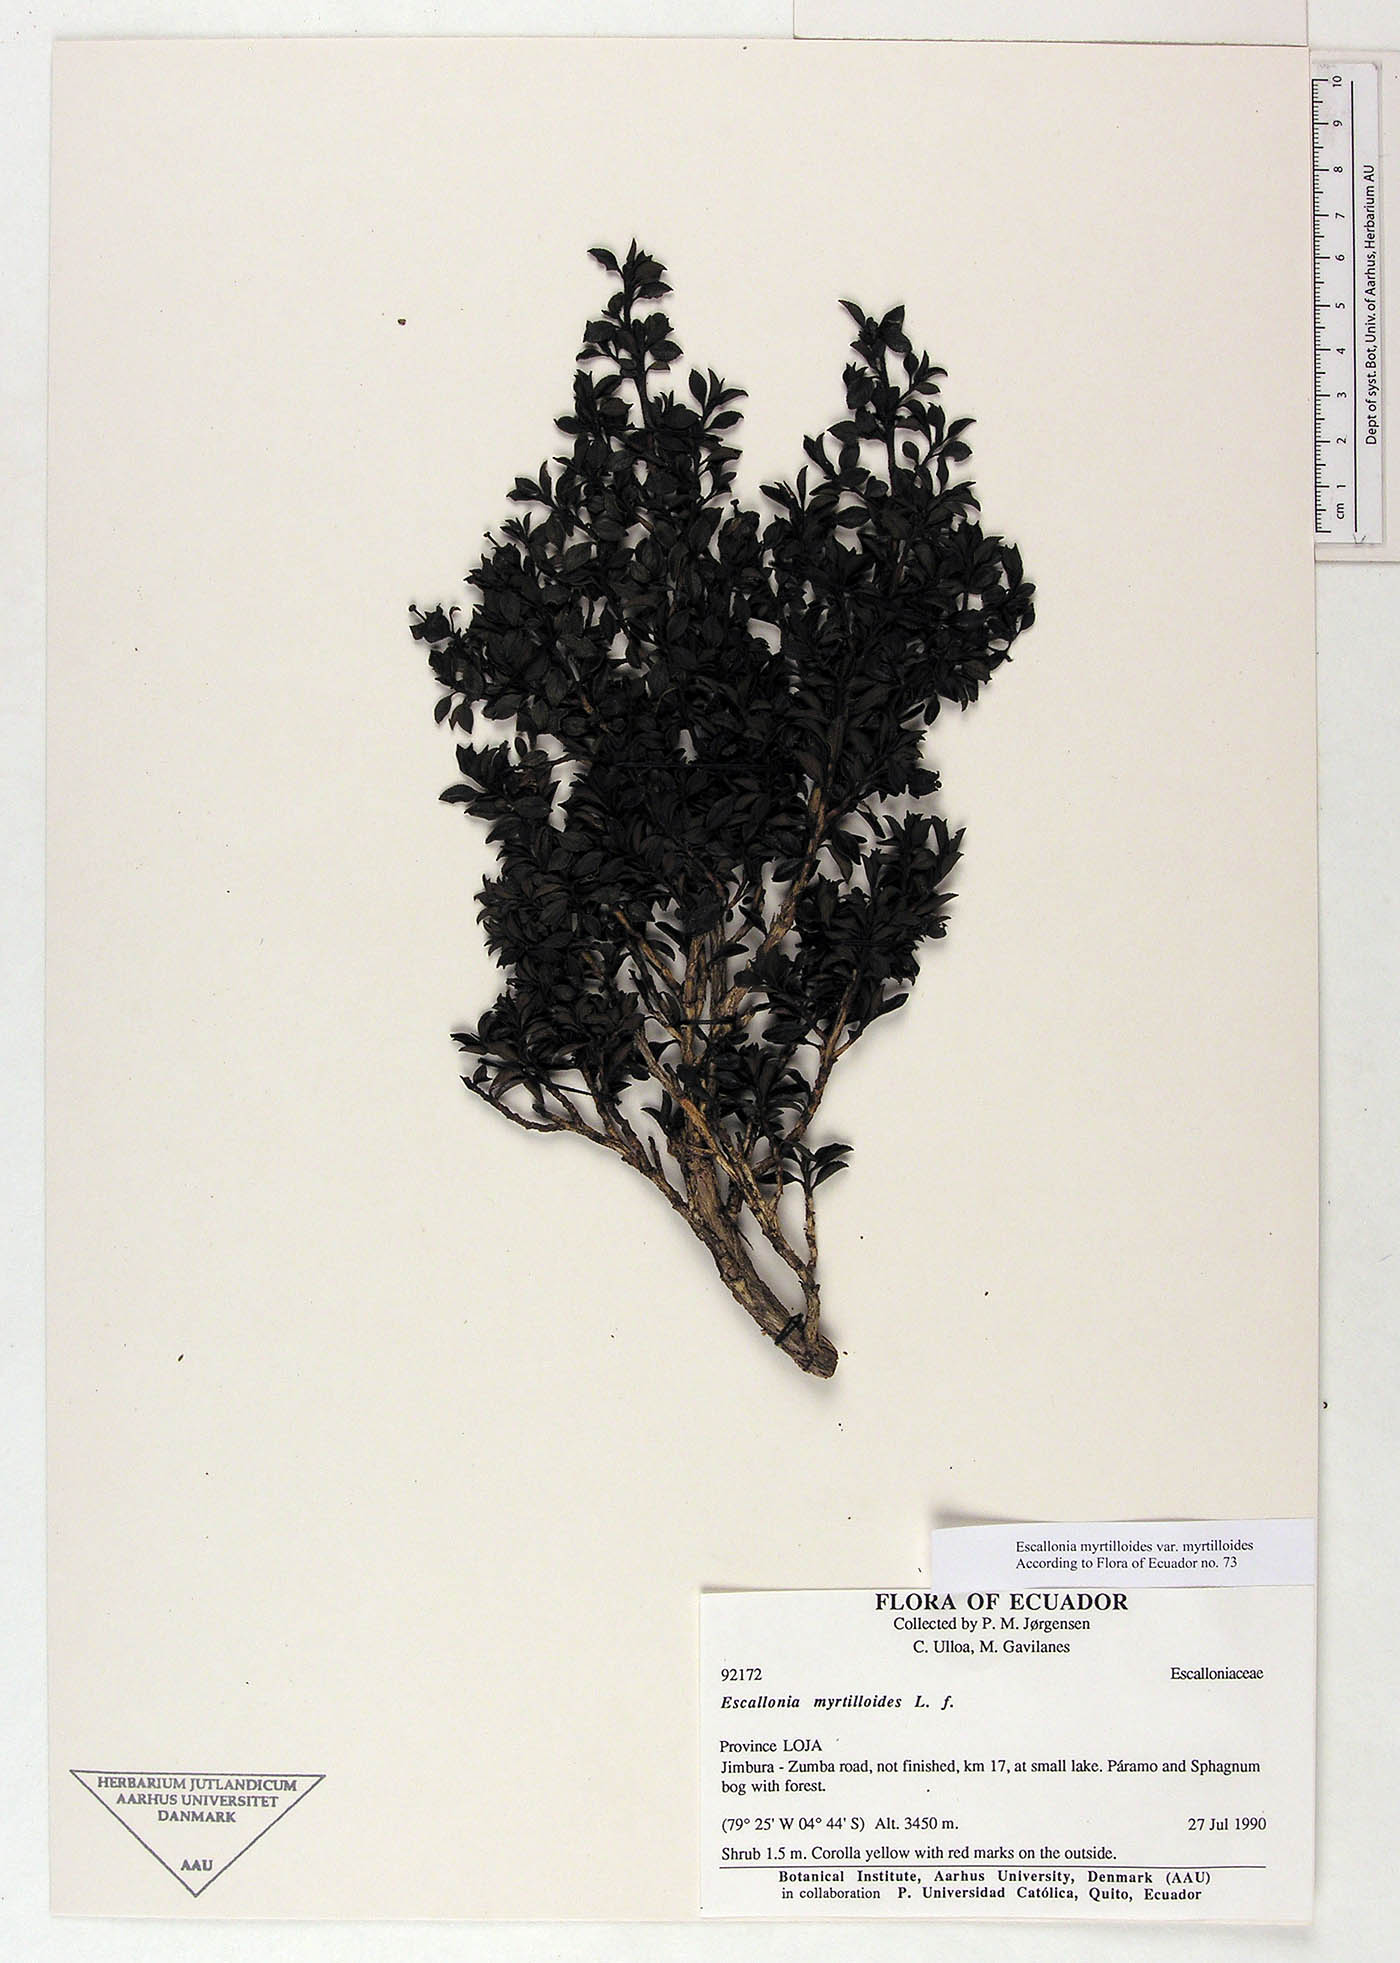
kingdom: Plantae
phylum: Tracheophyta
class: Magnoliopsida
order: Escalloniales
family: Escalloniaceae
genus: Escallonia
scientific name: Escallonia myrtilloides
